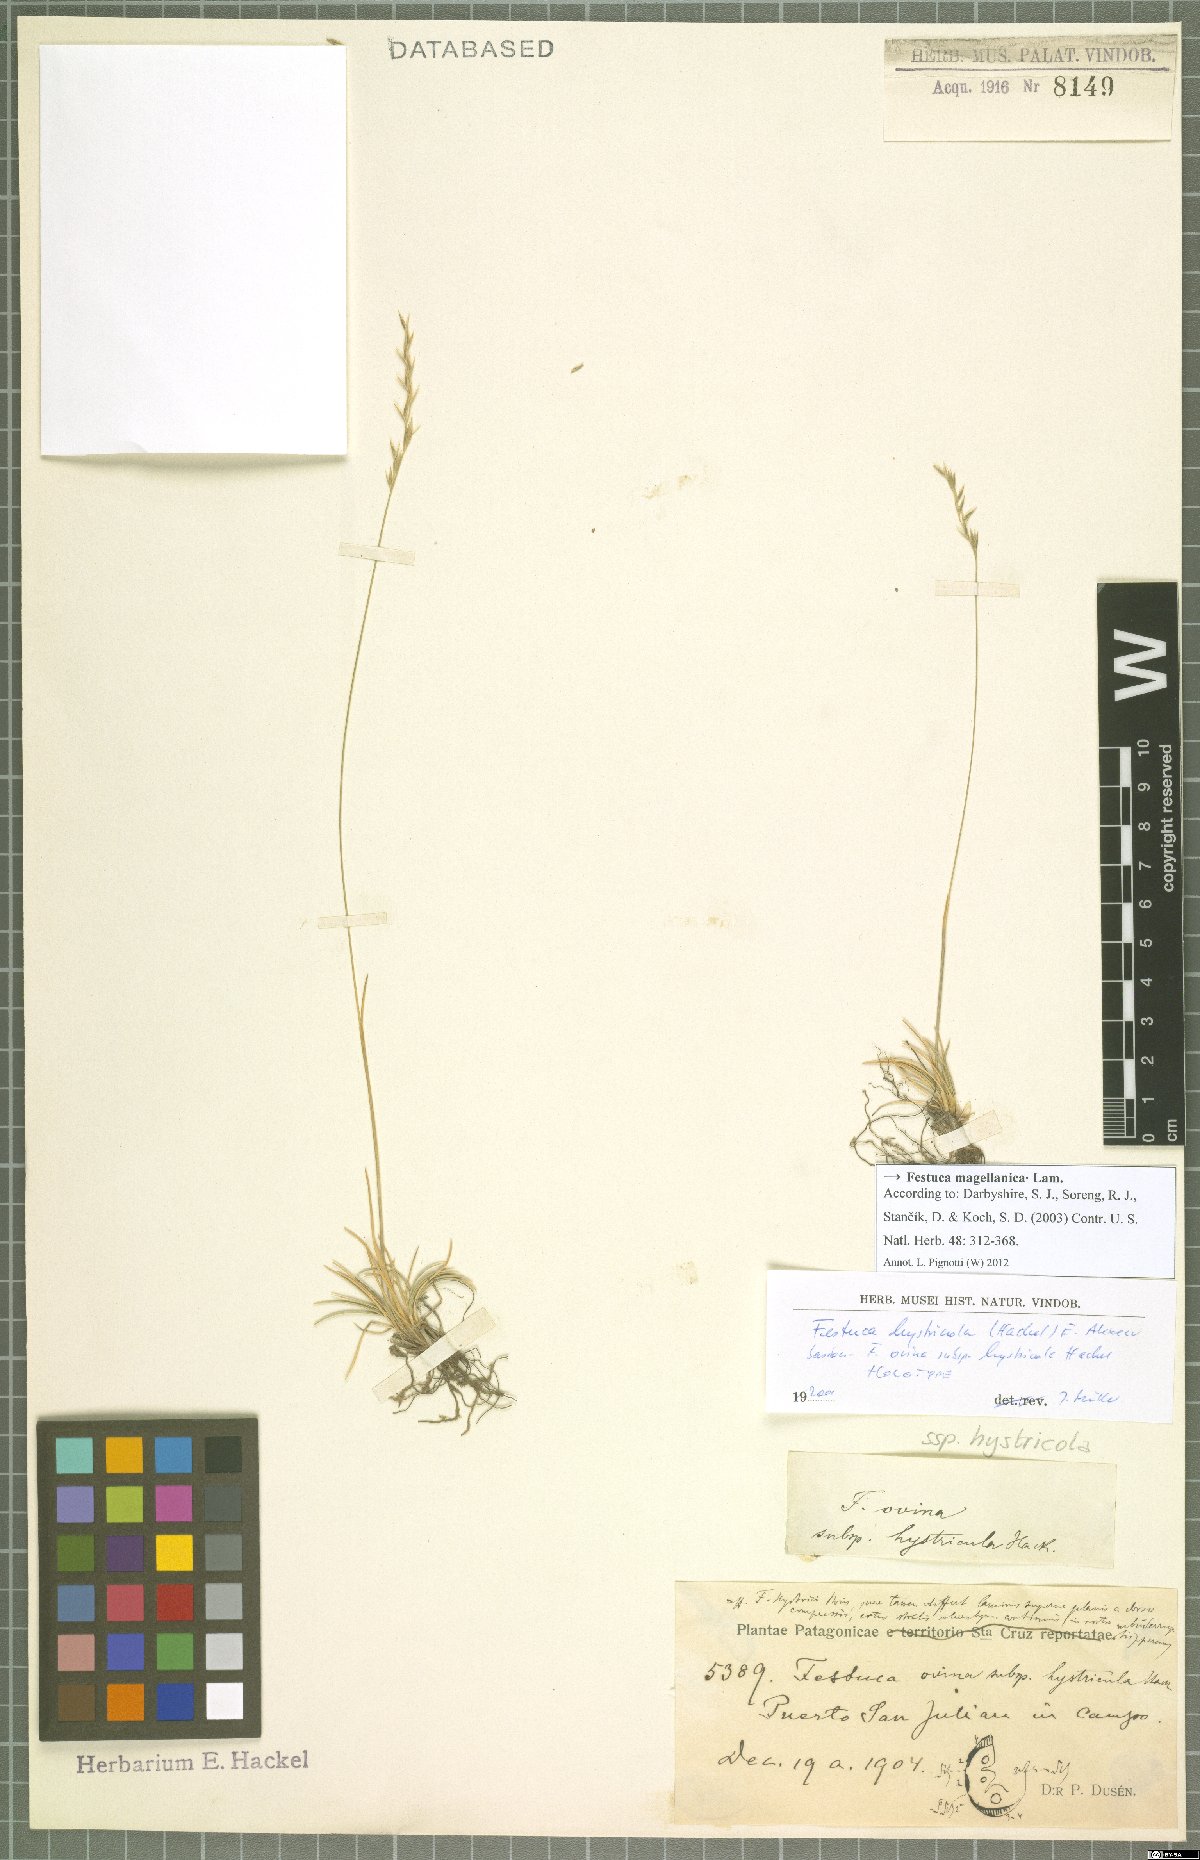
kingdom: Plantae
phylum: Tracheophyta
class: Liliopsida
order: Poales
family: Poaceae
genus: Festuca
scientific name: Festuca magellanica
